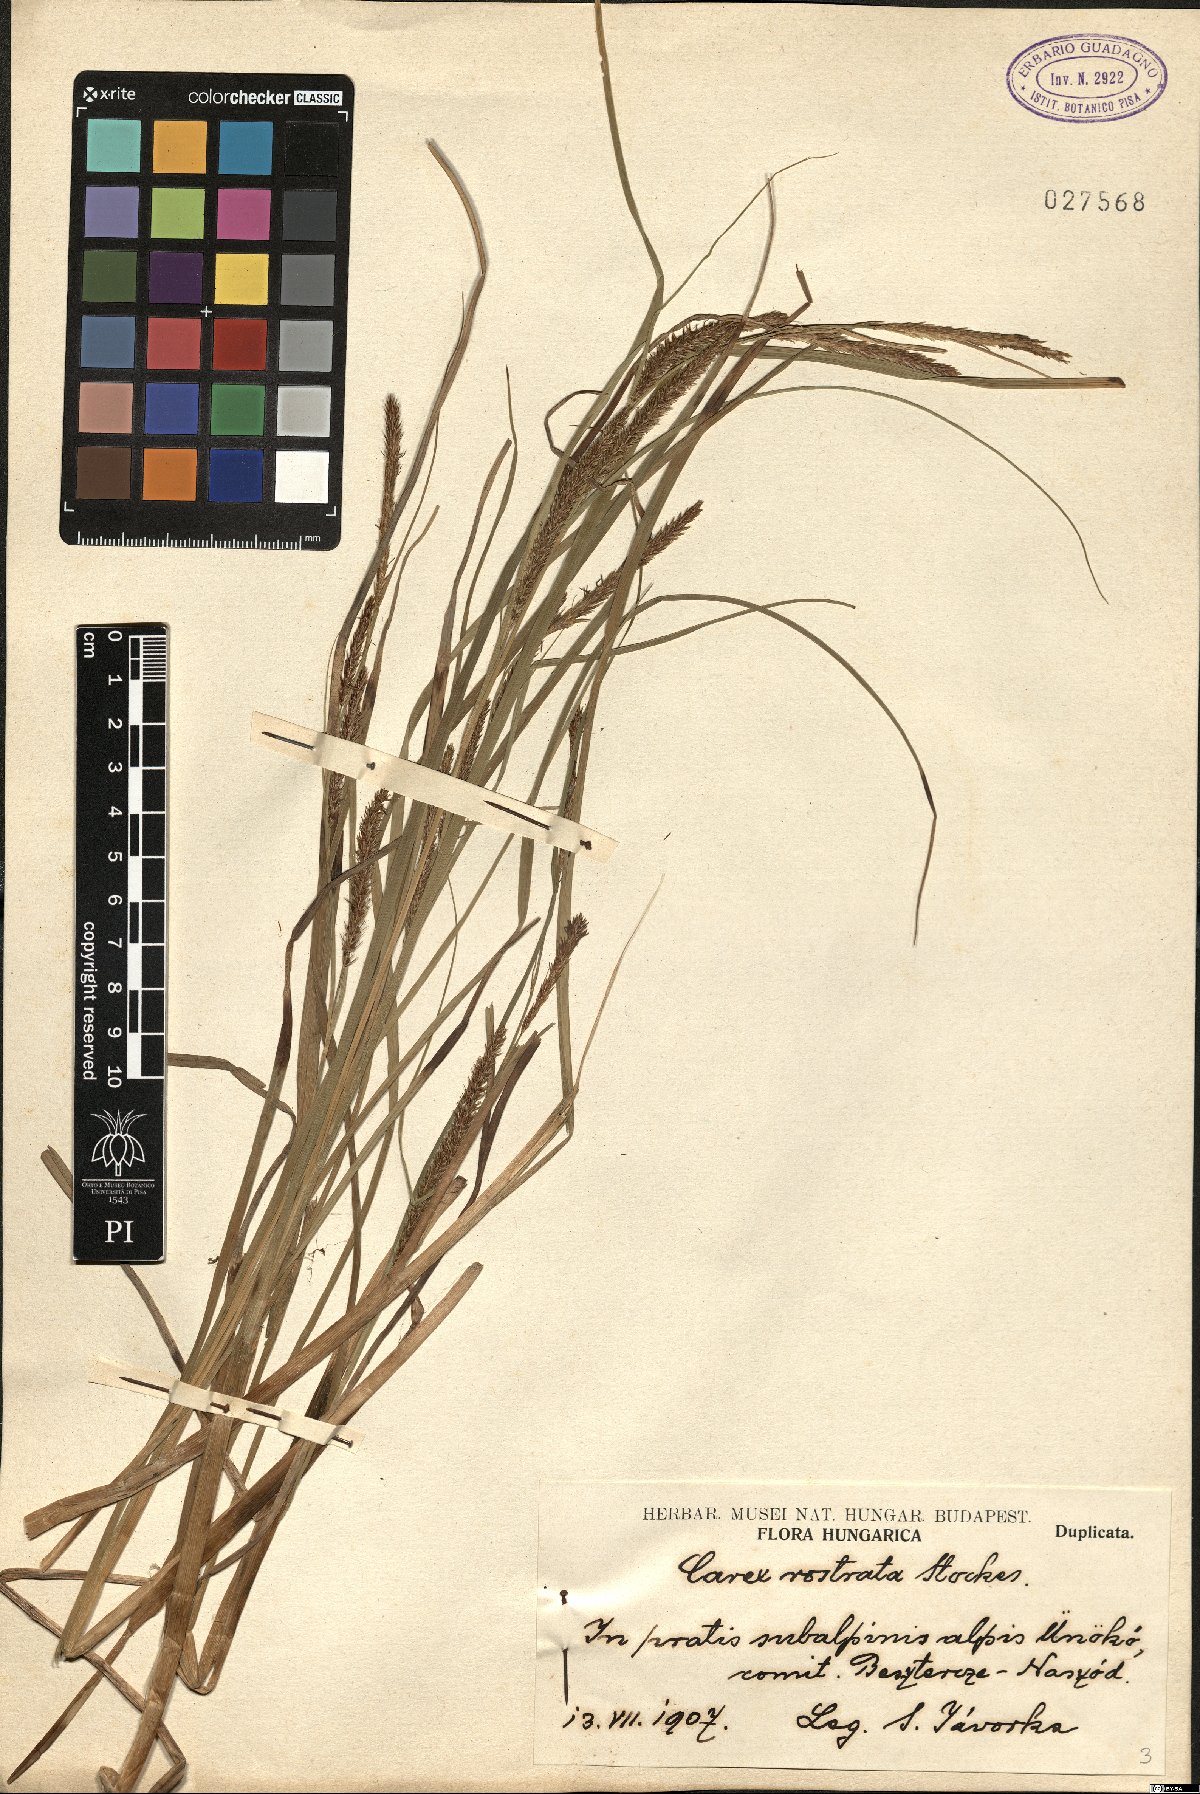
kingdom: Plantae
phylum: Tracheophyta
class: Liliopsida
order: Poales
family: Cyperaceae
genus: Carex
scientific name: Carex rostrata
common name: Bottle sedge
